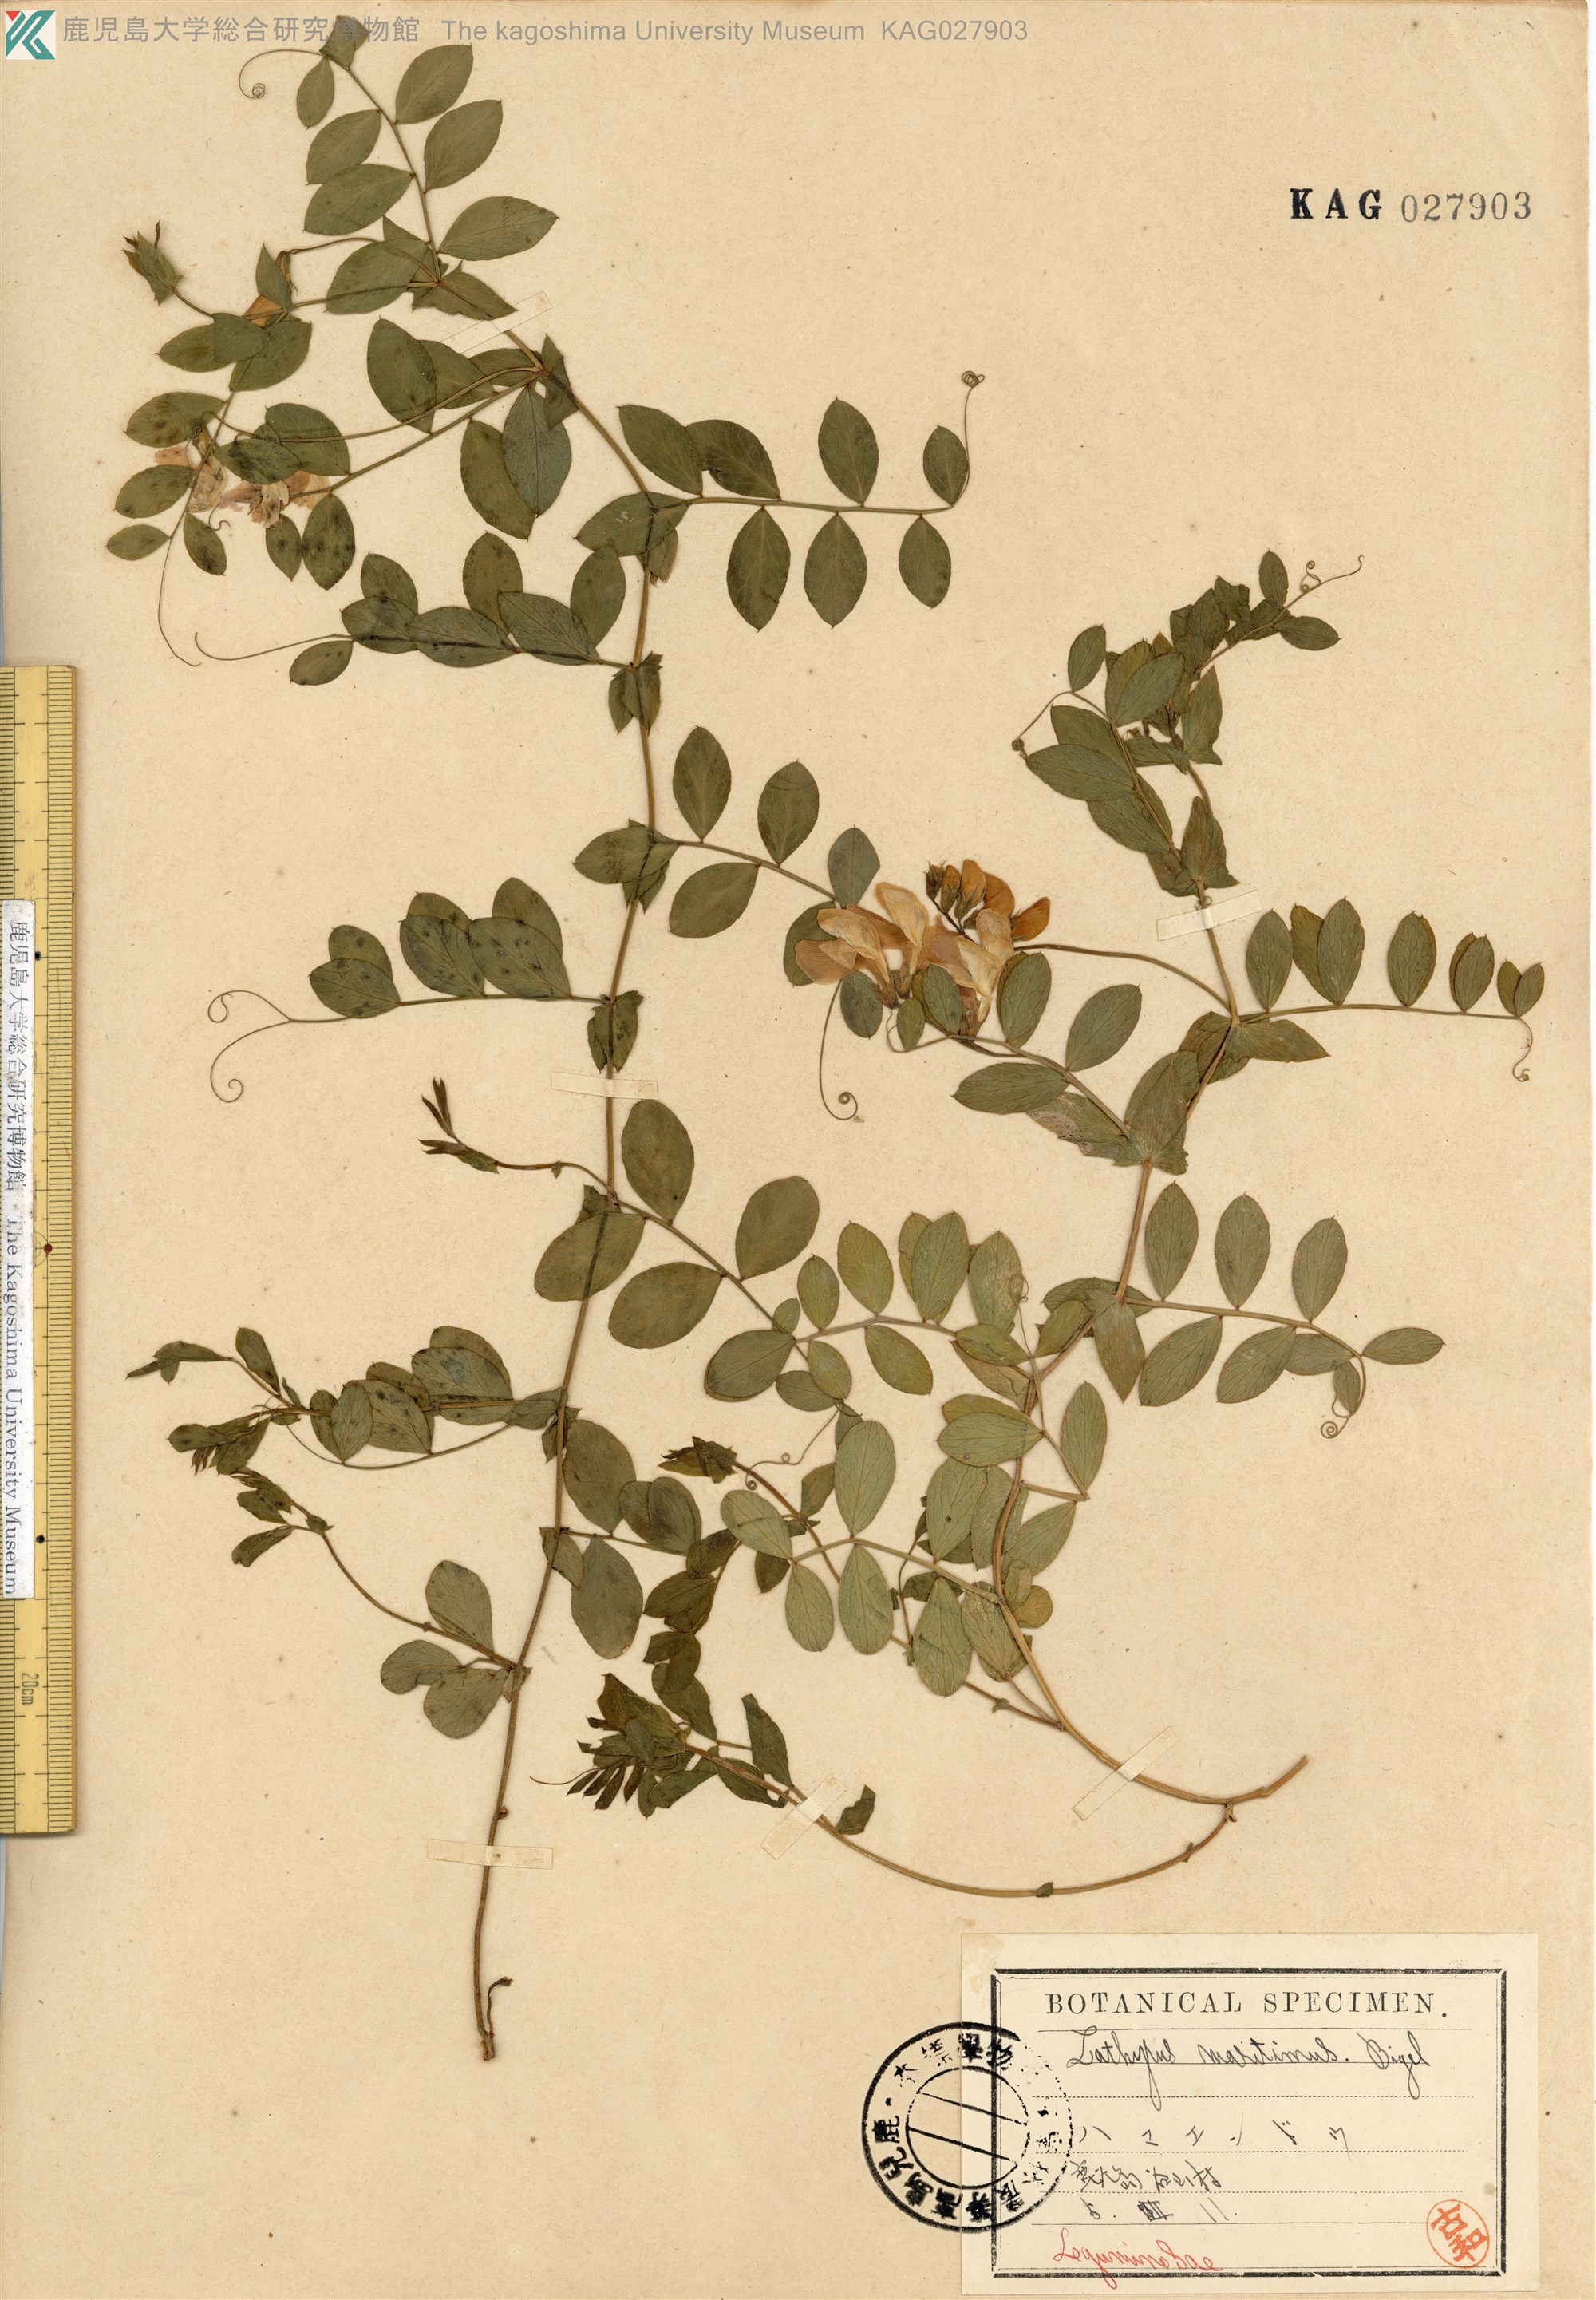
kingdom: Plantae
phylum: Tracheophyta
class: Magnoliopsida
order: Fabales
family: Fabaceae
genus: Lathyrus
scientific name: Lathyrus japonicus
